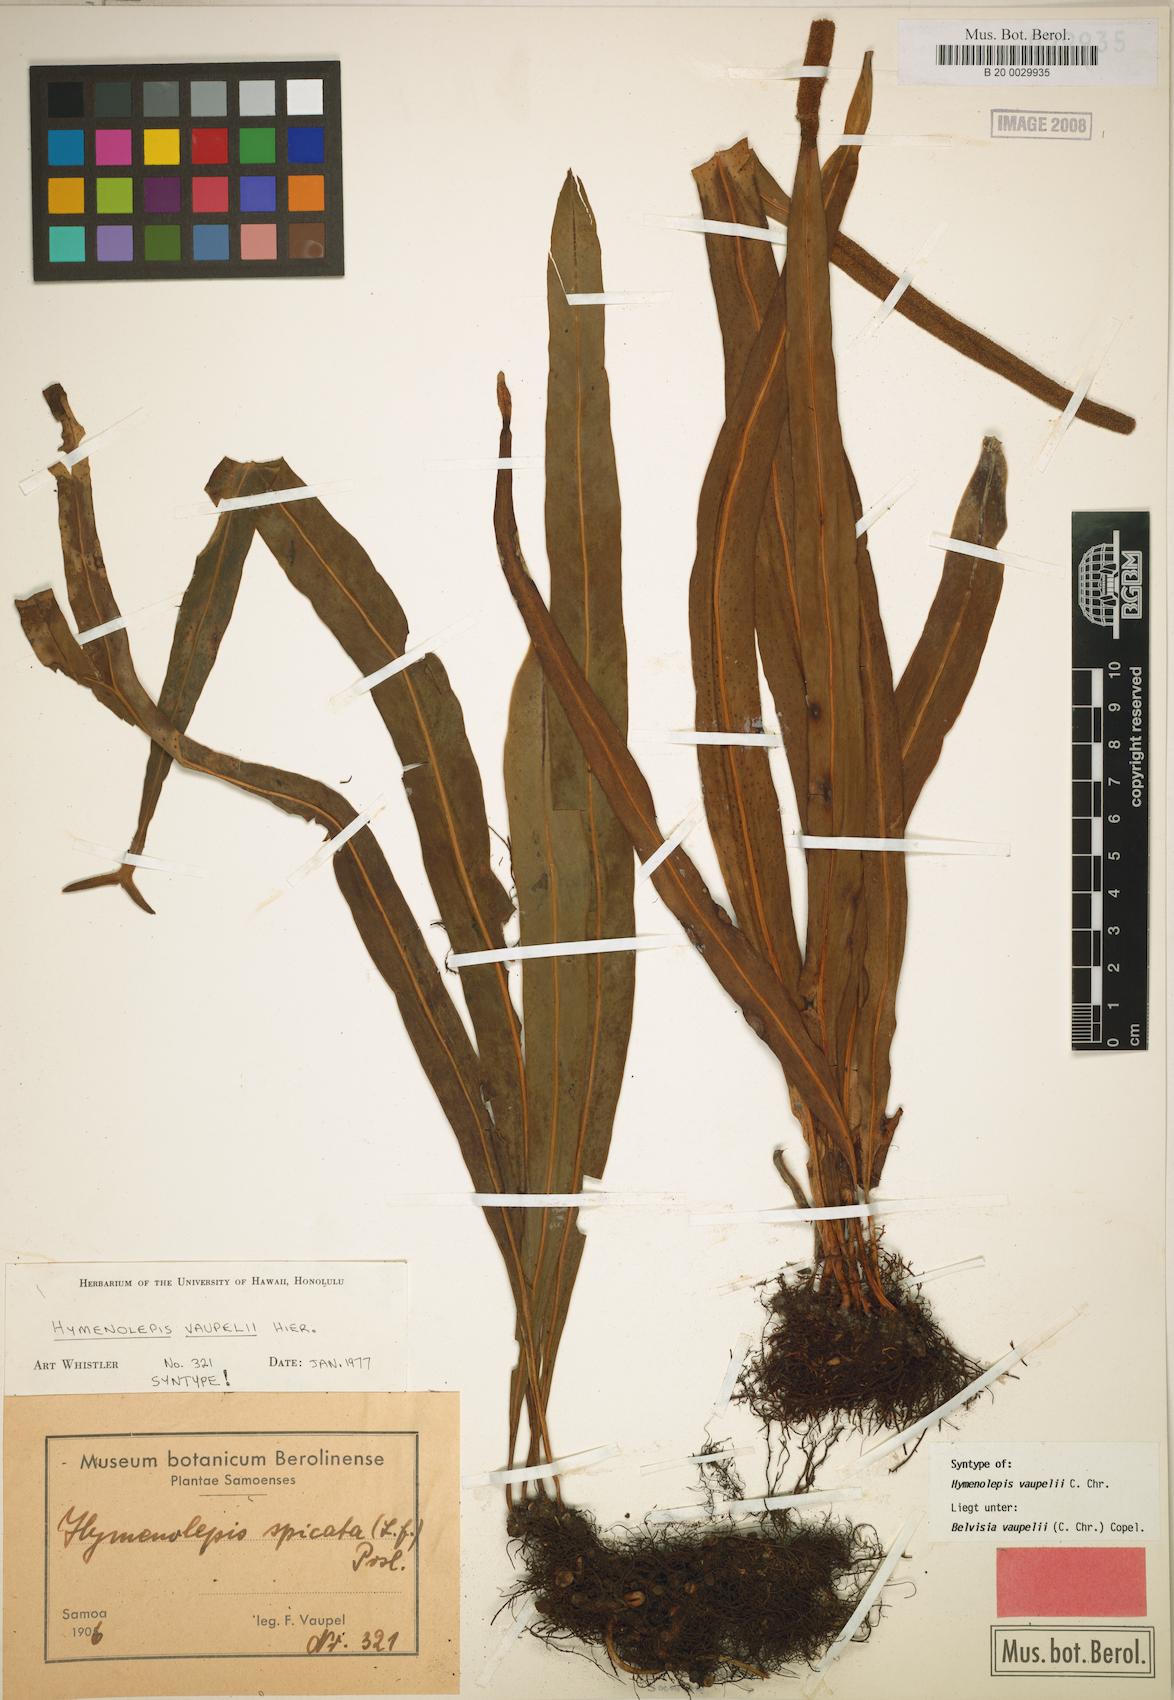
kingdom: Plantae
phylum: Tracheophyta
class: Polypodiopsida
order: Polypodiales
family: Polypodiaceae
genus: Lepisorus
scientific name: Lepisorus mucronatus
